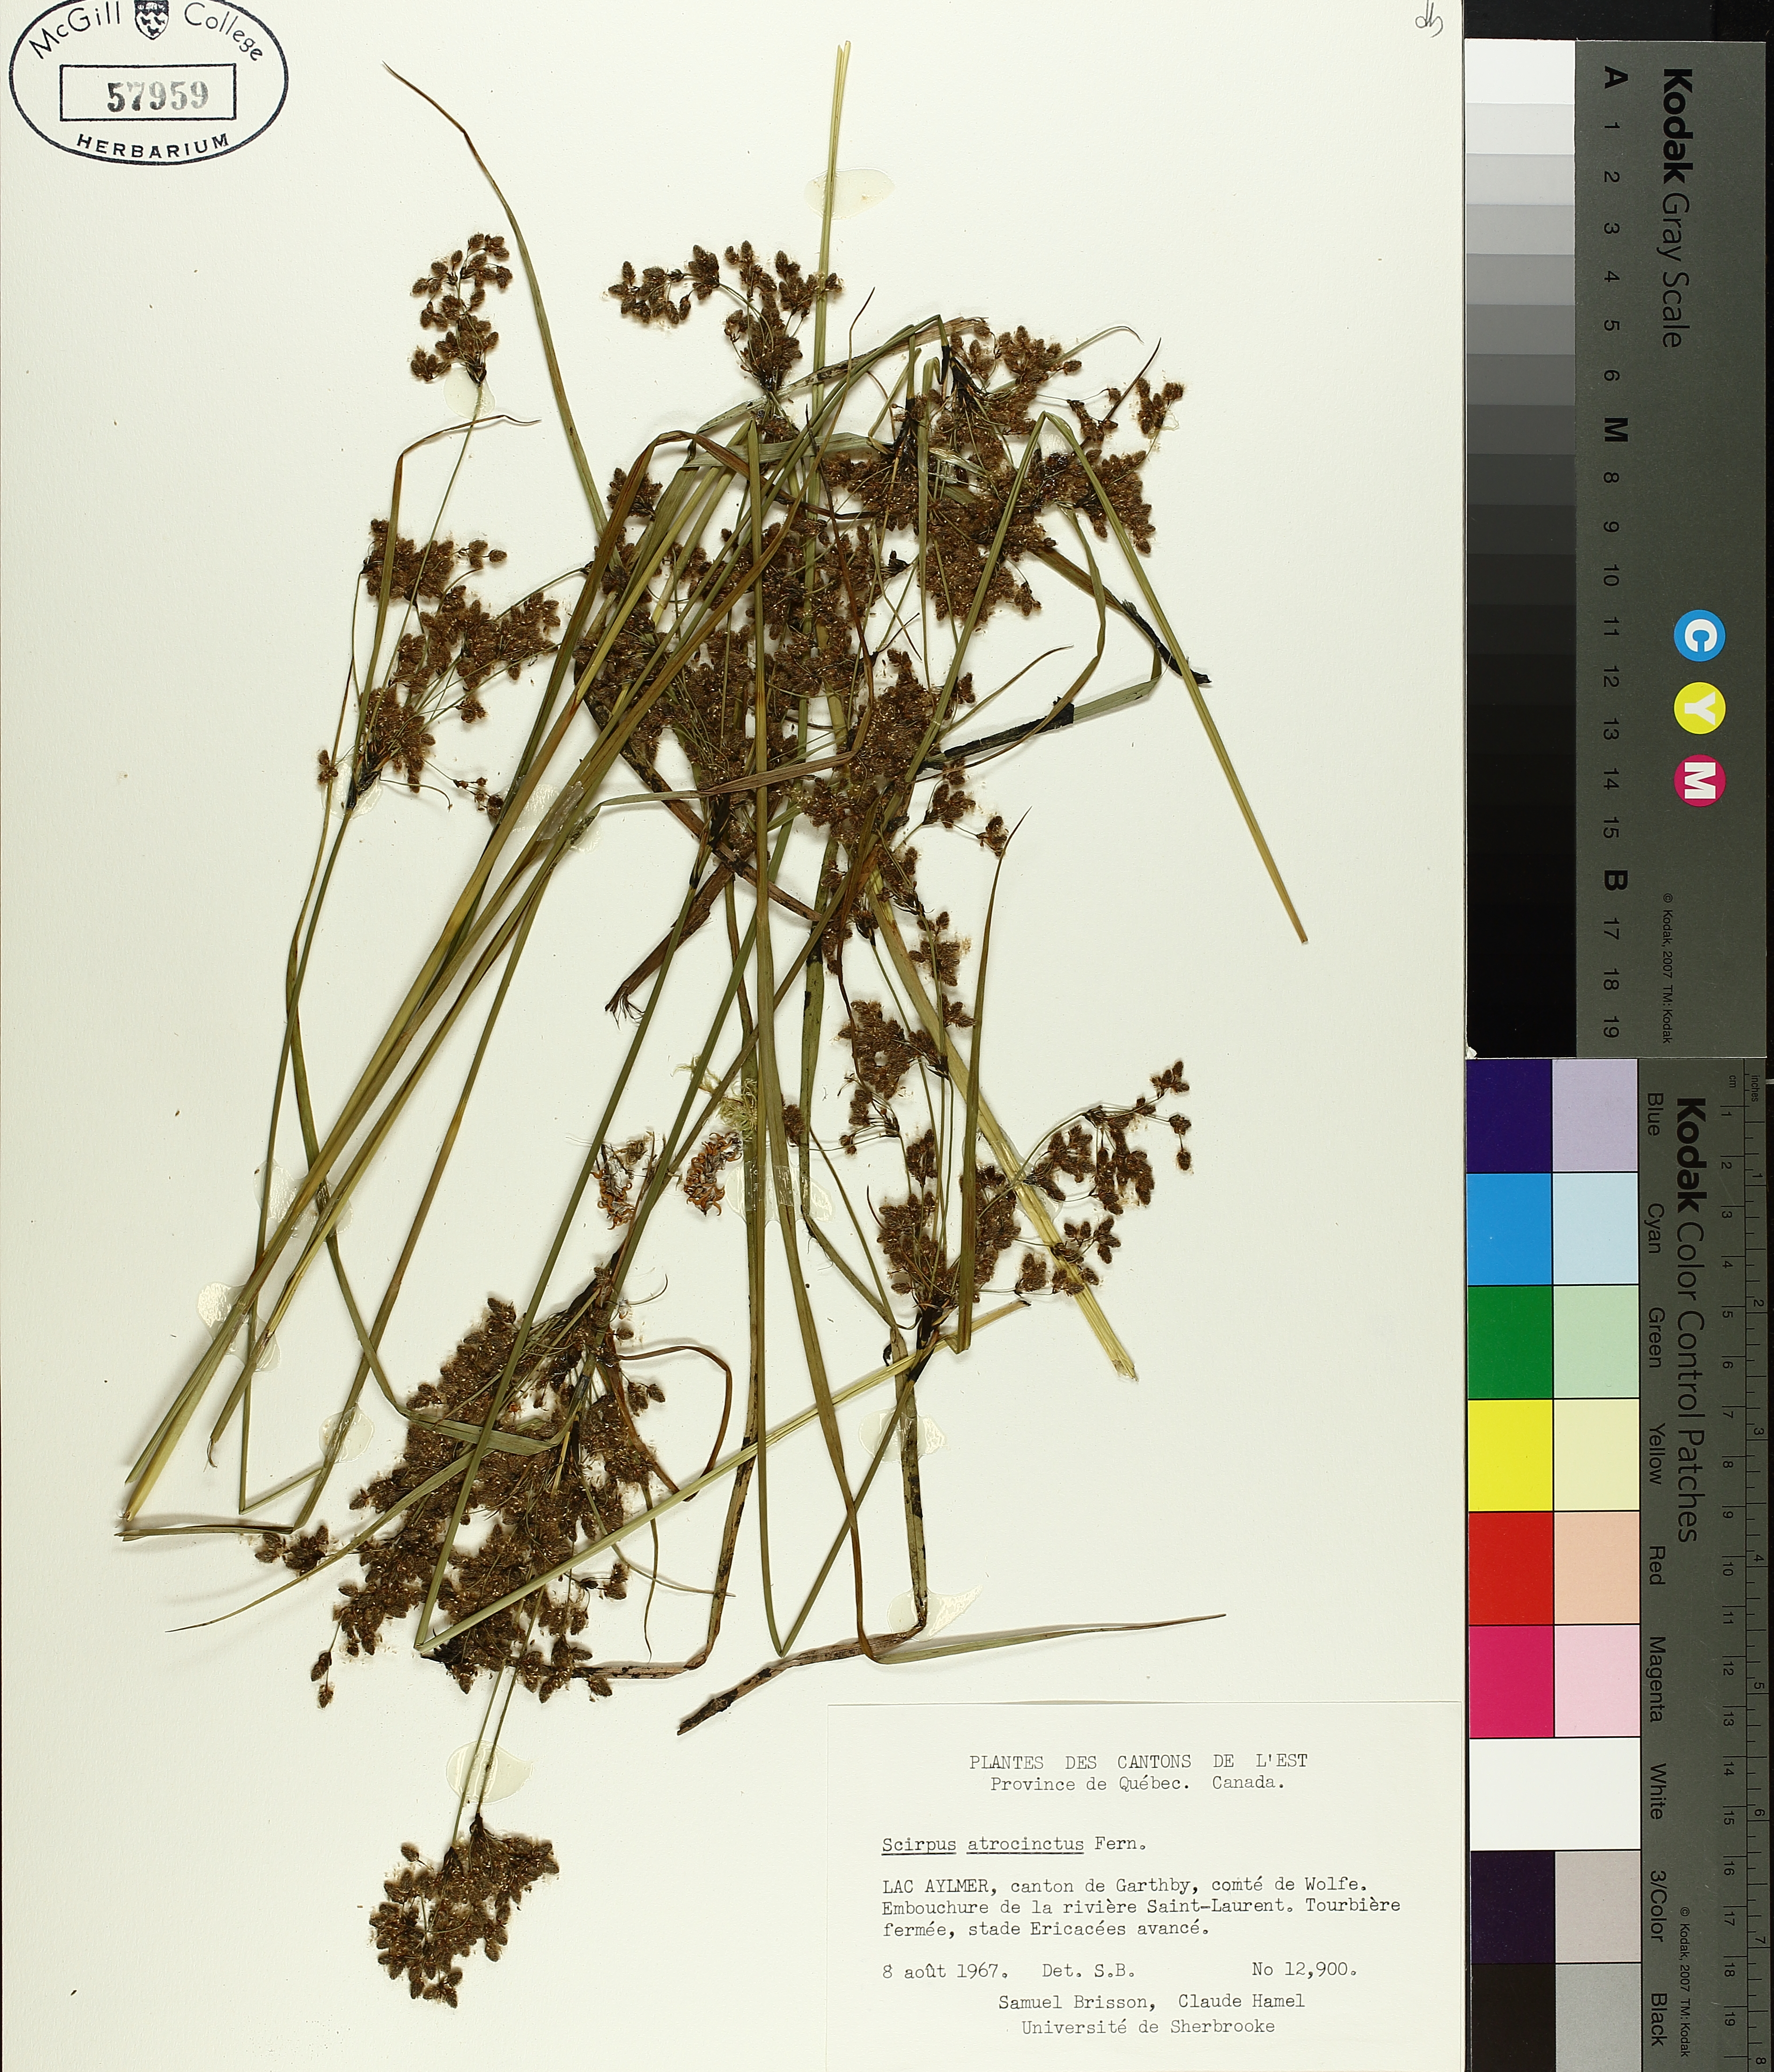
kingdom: Plantae
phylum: Tracheophyta
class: Liliopsida
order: Poales
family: Cyperaceae
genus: Scirpus
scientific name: Scirpus atrocinctus
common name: Black-girdled bulrush
